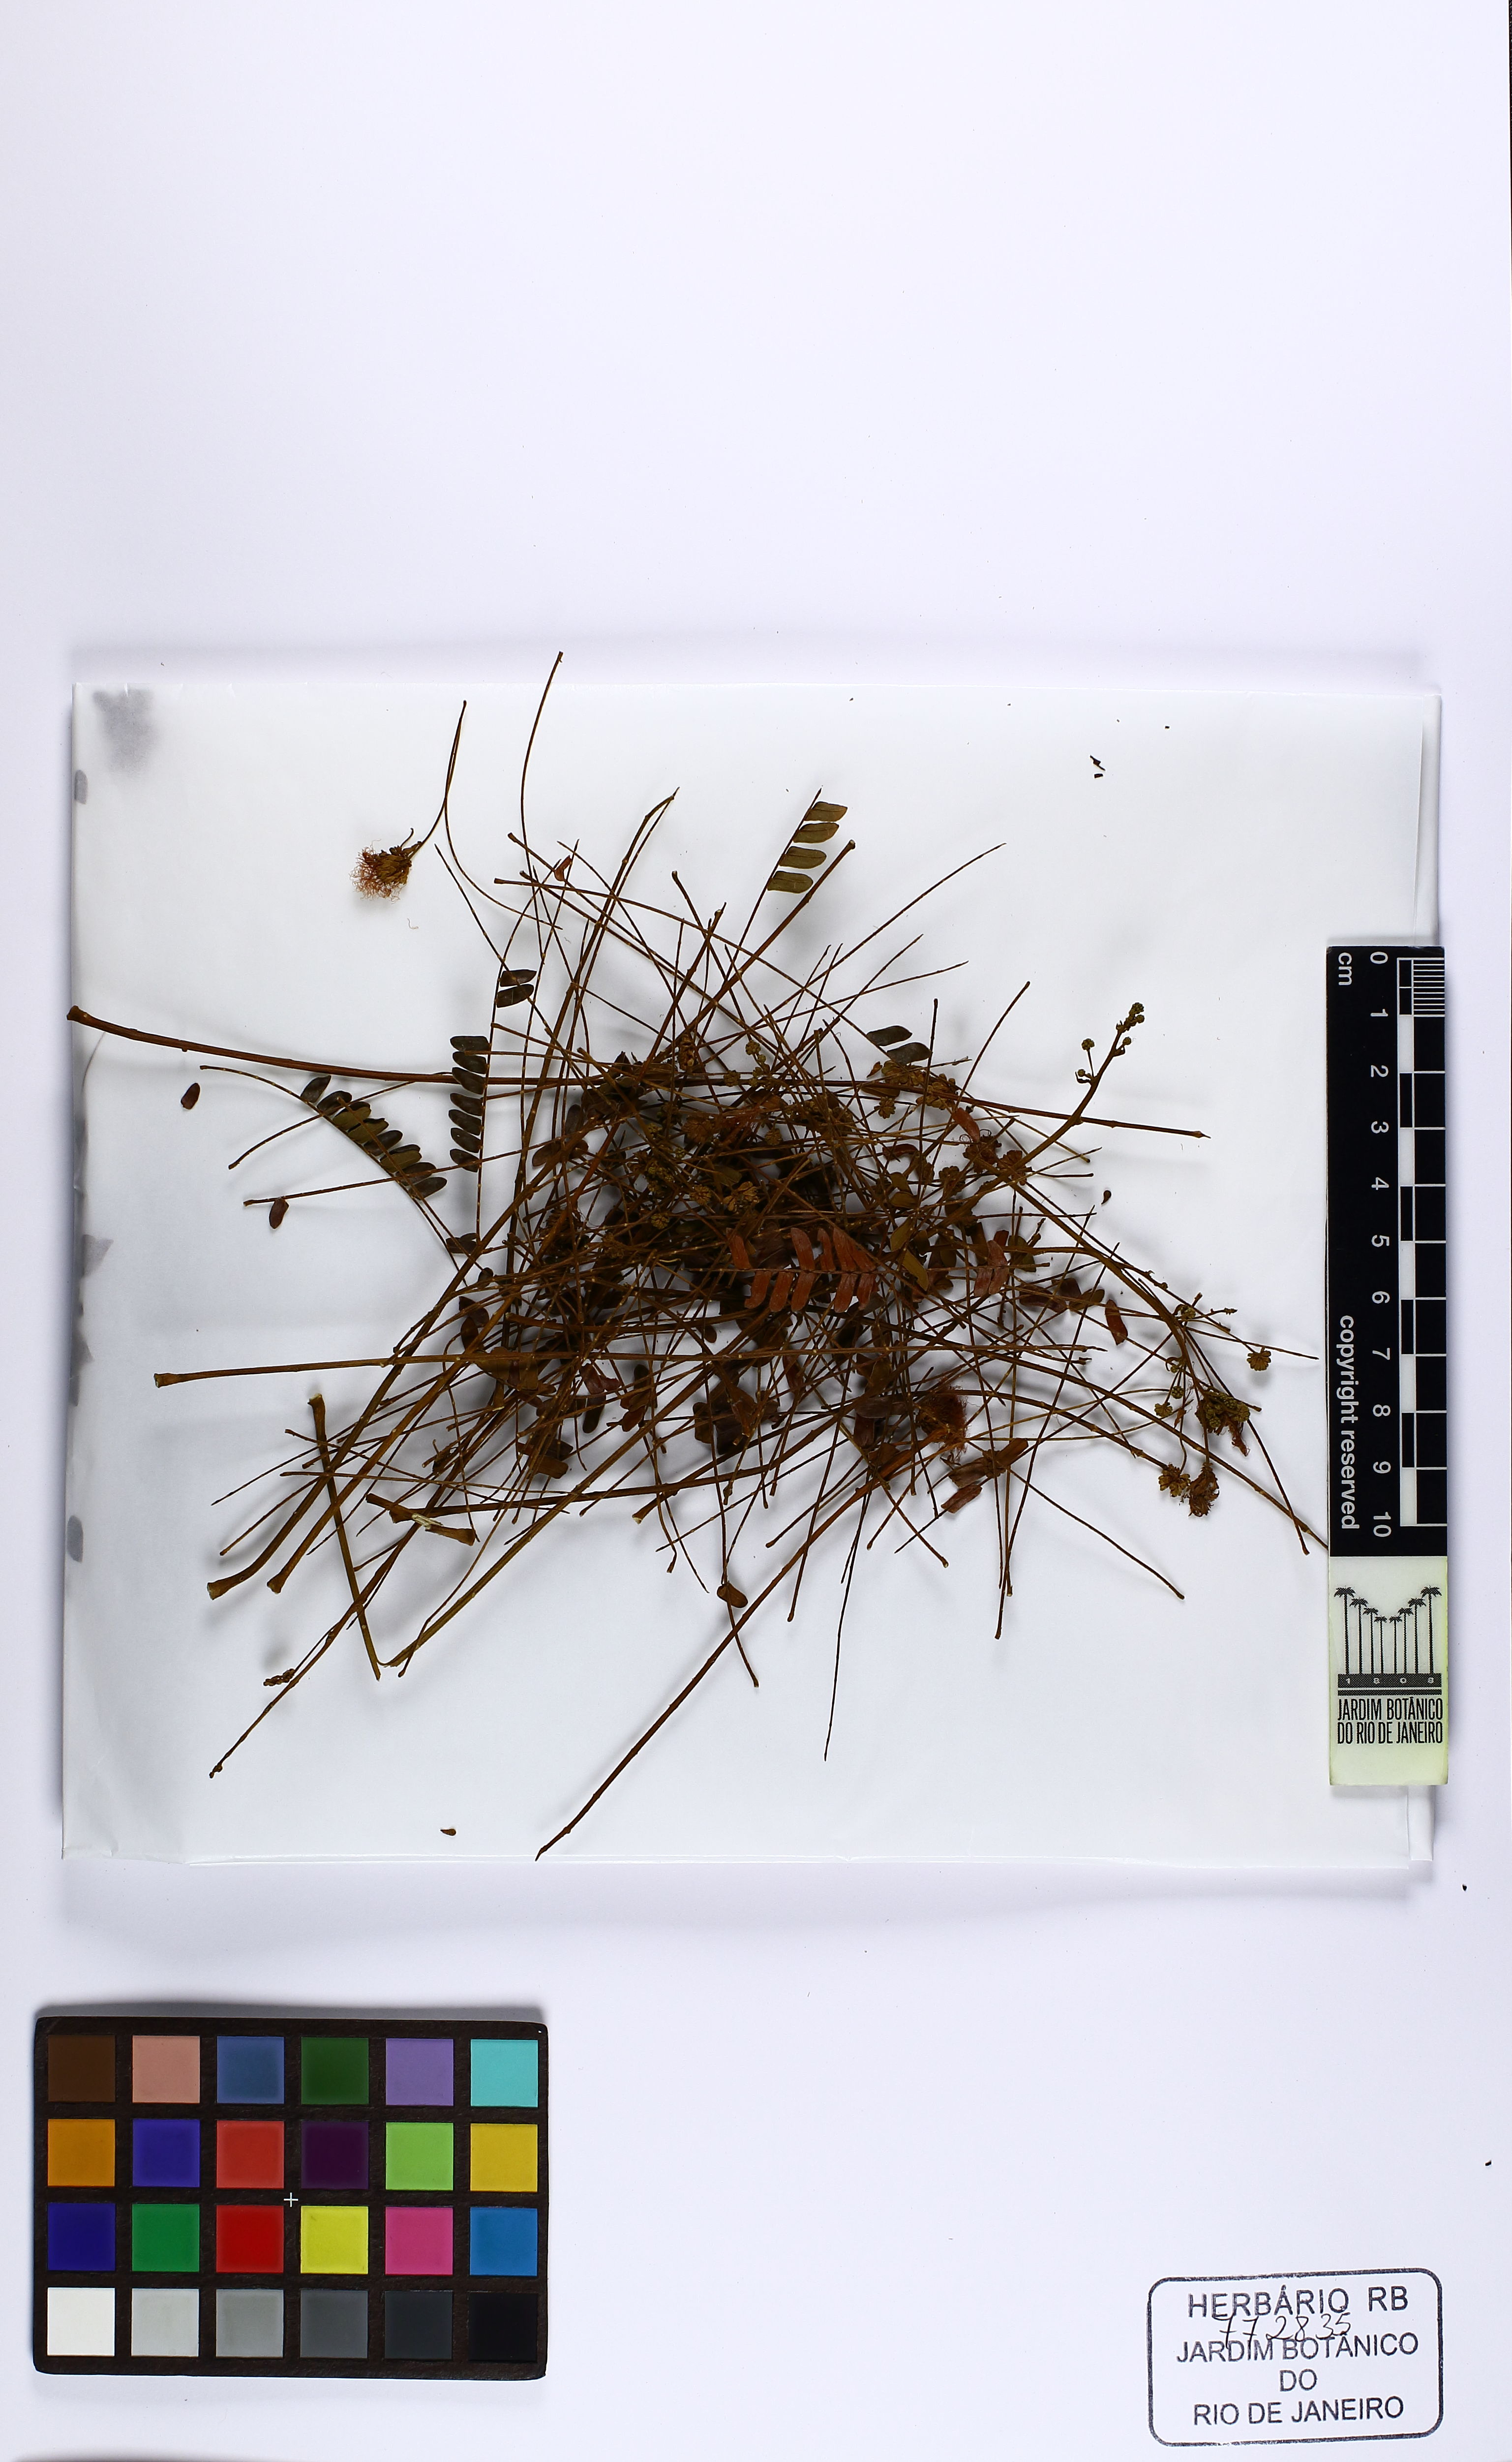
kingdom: Plantae
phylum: Tracheophyta
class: Magnoliopsida
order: Fabales
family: Fabaceae
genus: Piptadenia
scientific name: Piptadenia
